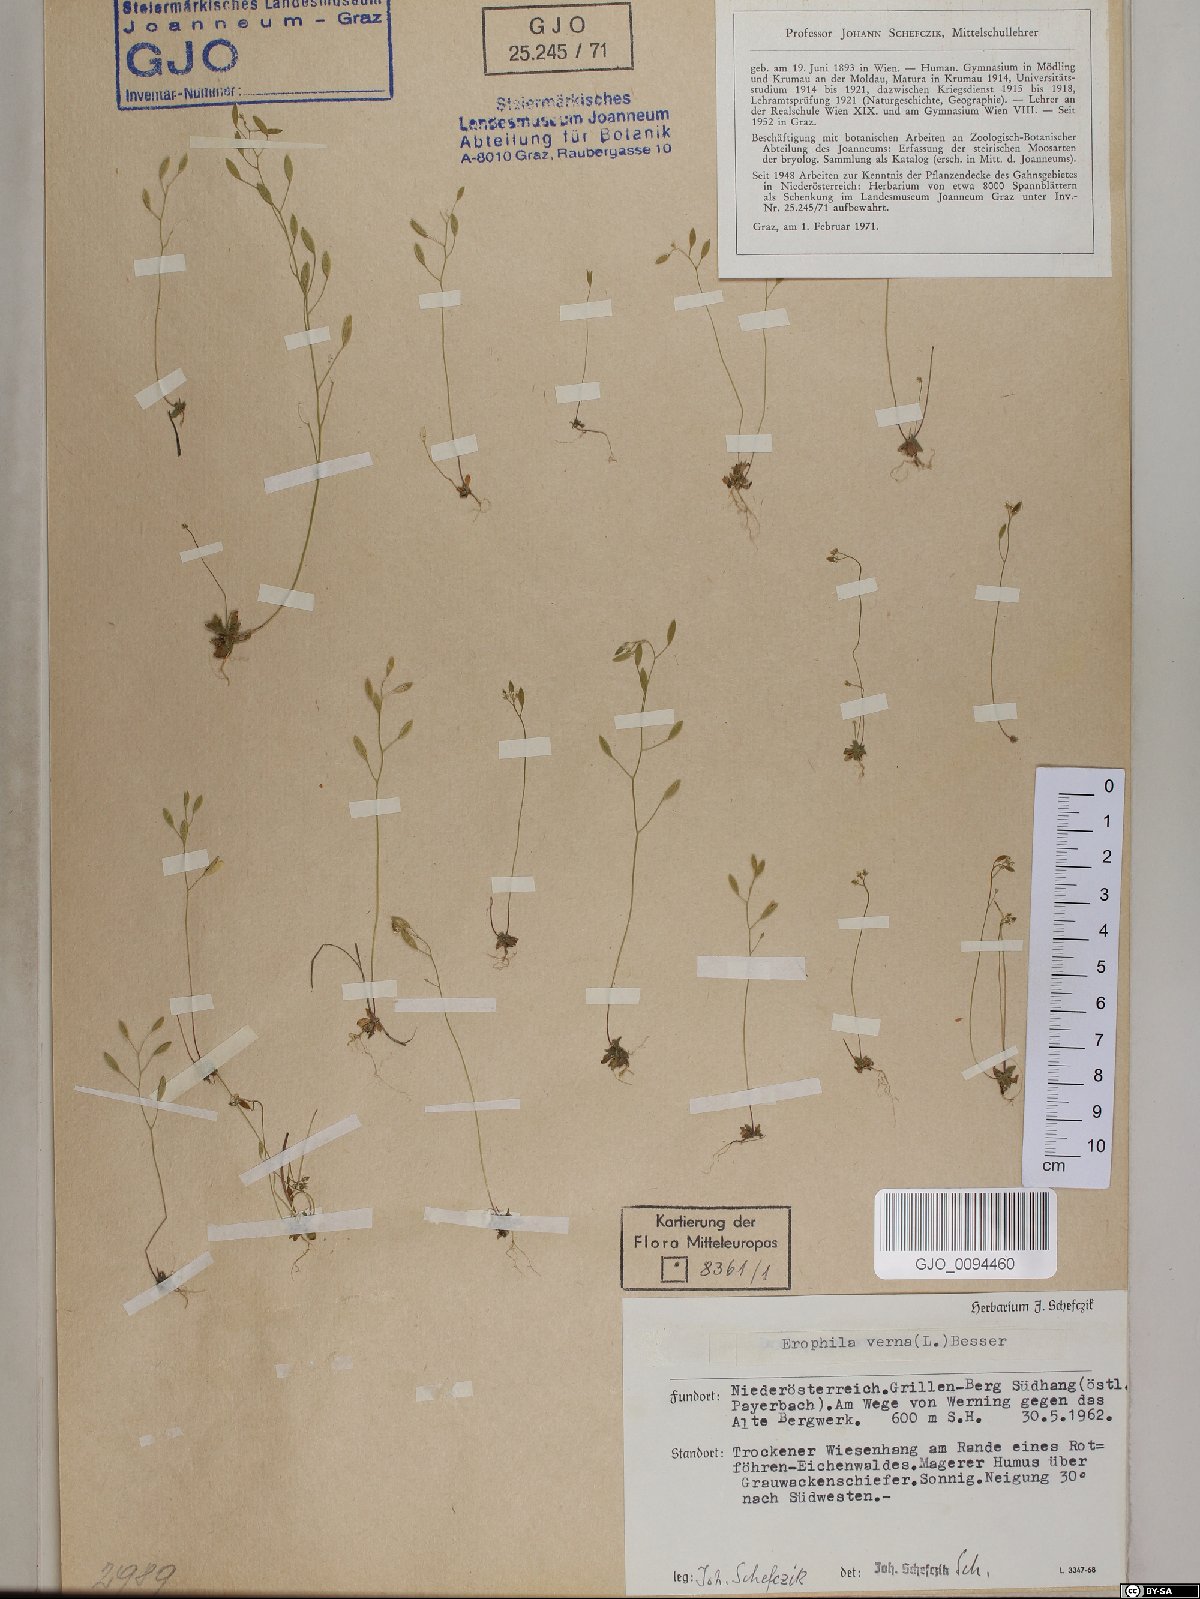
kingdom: Plantae
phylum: Tracheophyta
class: Magnoliopsida
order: Brassicales
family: Brassicaceae
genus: Draba
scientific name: Draba verna
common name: Spring draba
